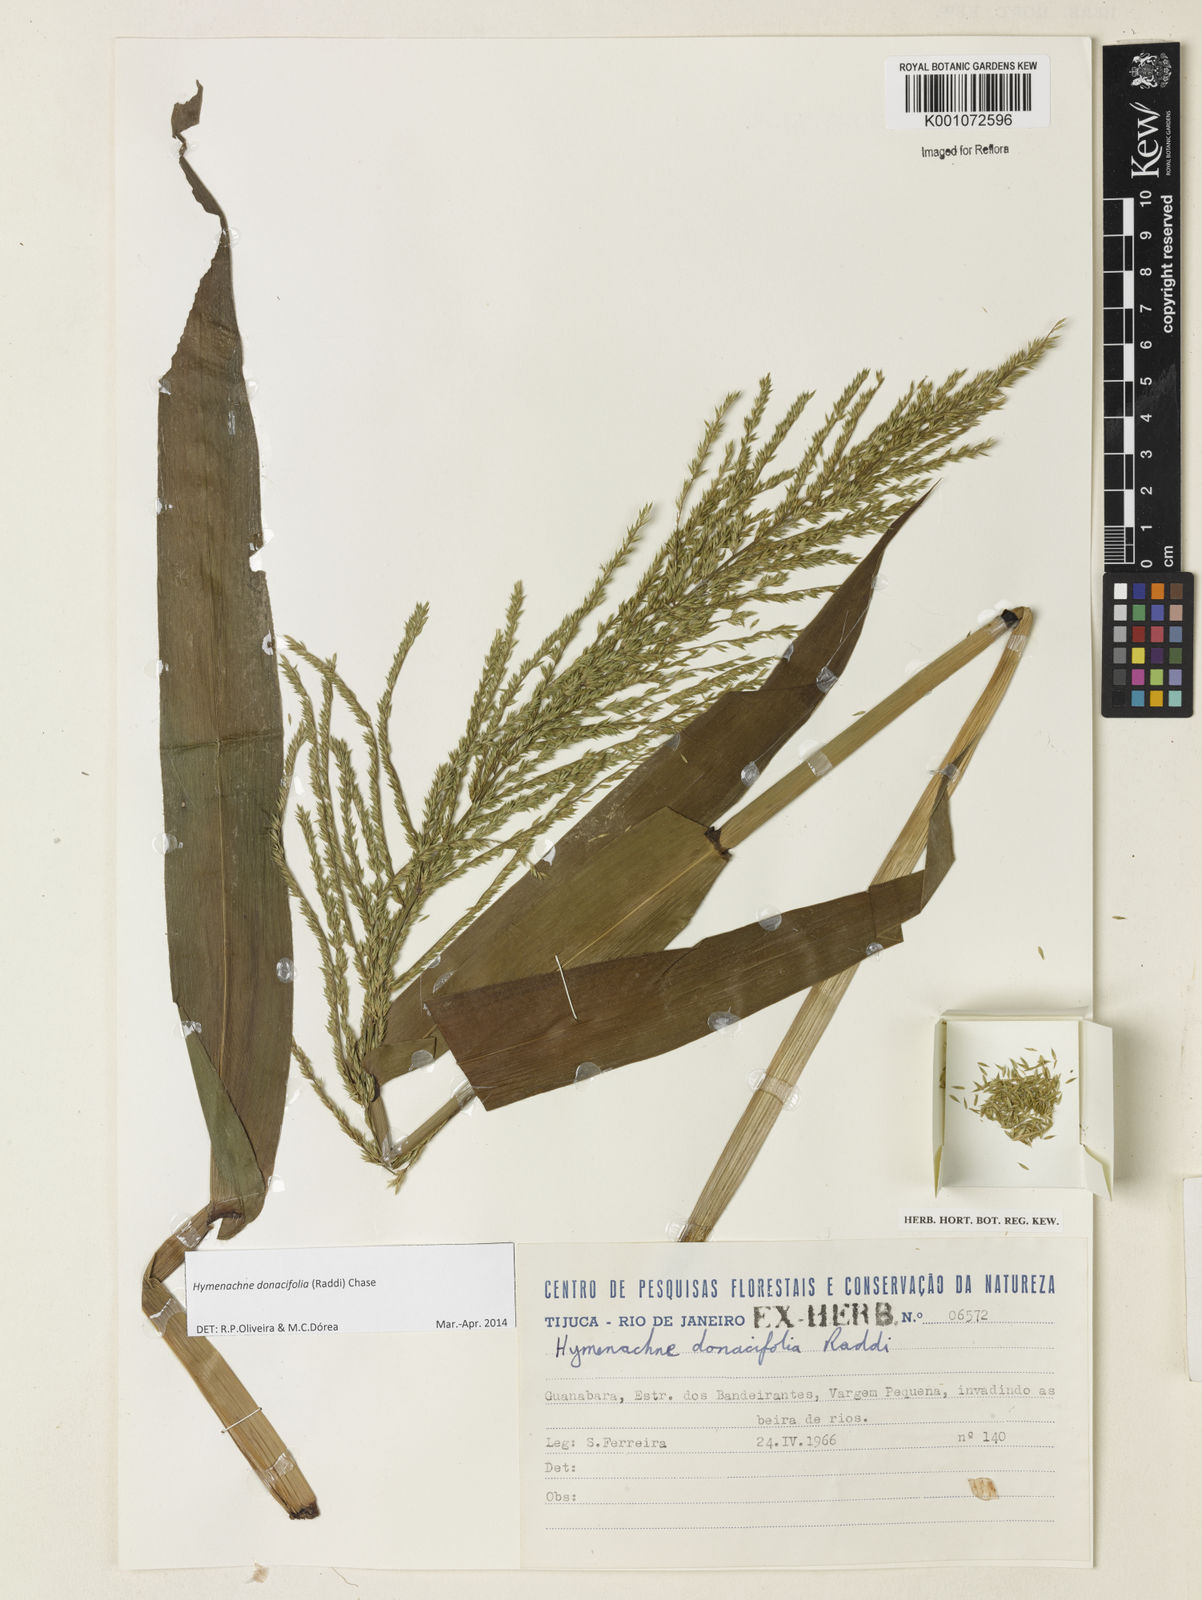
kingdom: Plantae
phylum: Tracheophyta
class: Liliopsida
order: Poales
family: Poaceae
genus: Hymenachne
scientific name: Hymenachne donacifolia
